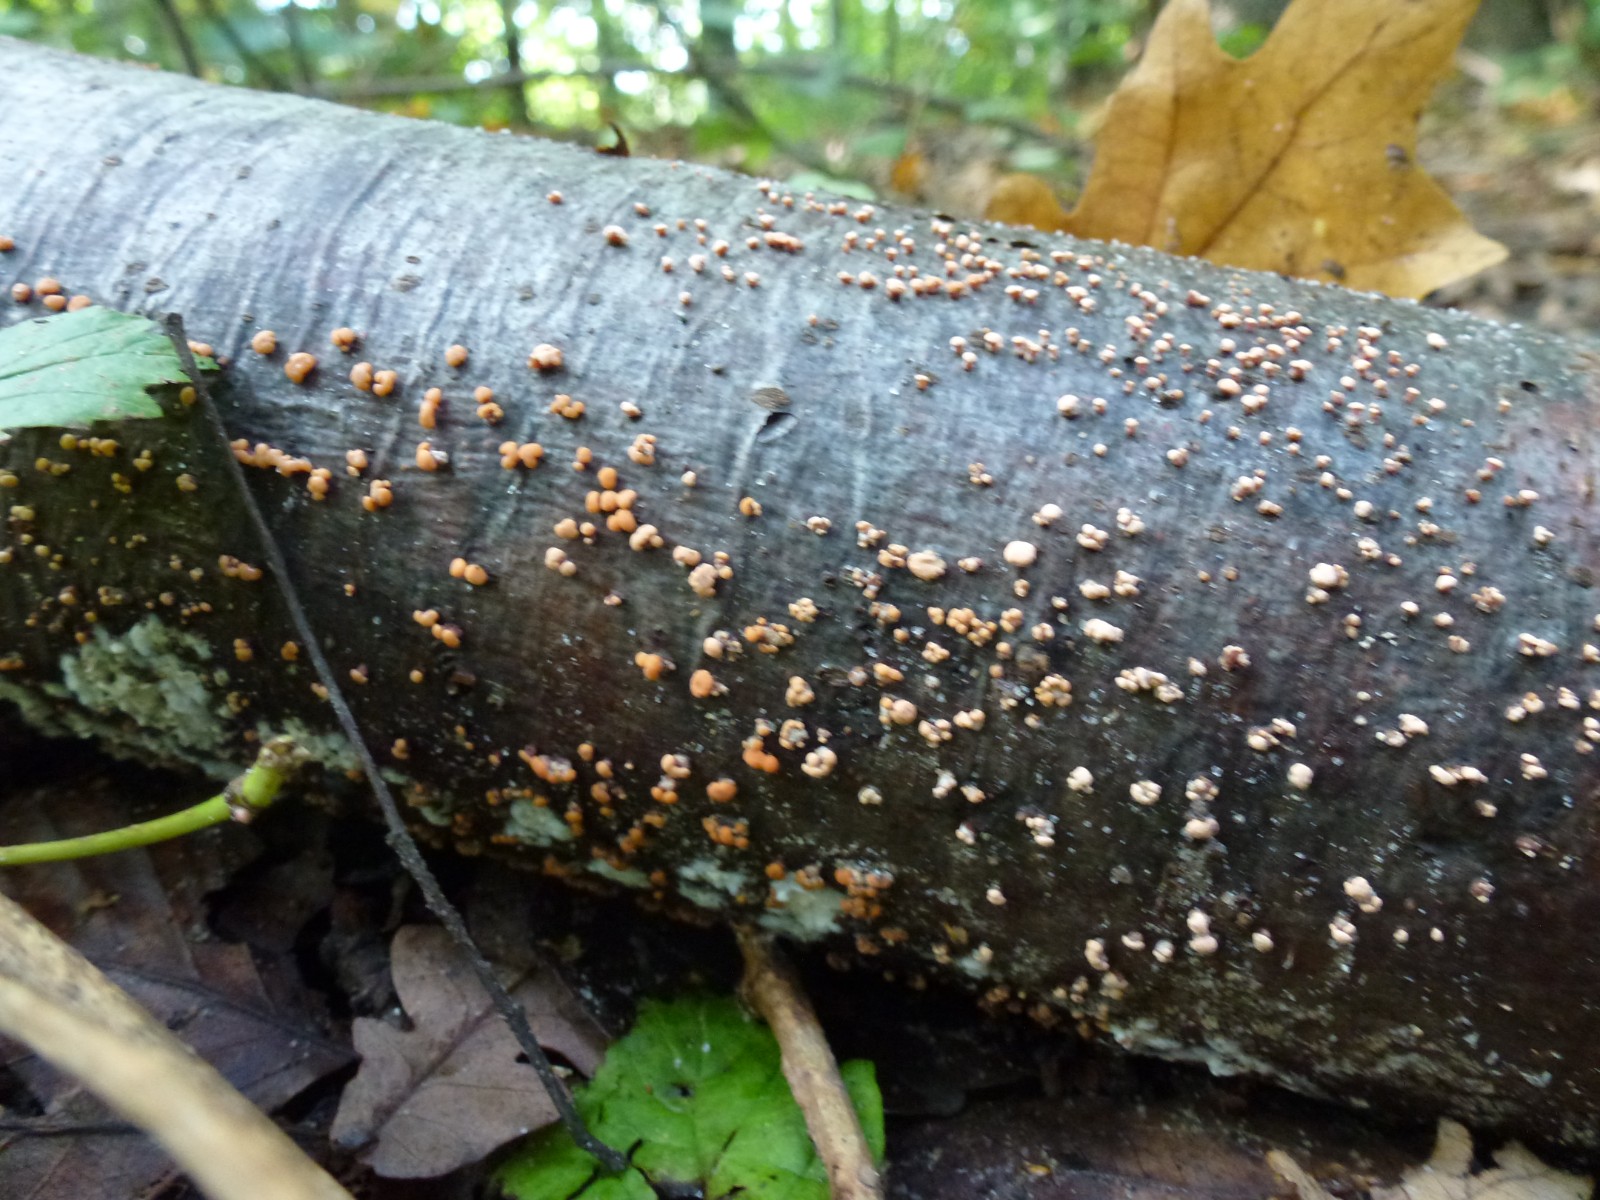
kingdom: Fungi
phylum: Ascomycota
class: Sordariomycetes
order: Hypocreales
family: Nectriaceae
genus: Nectria
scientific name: Nectria cinnabarina
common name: almindelig cinnobersvamp
